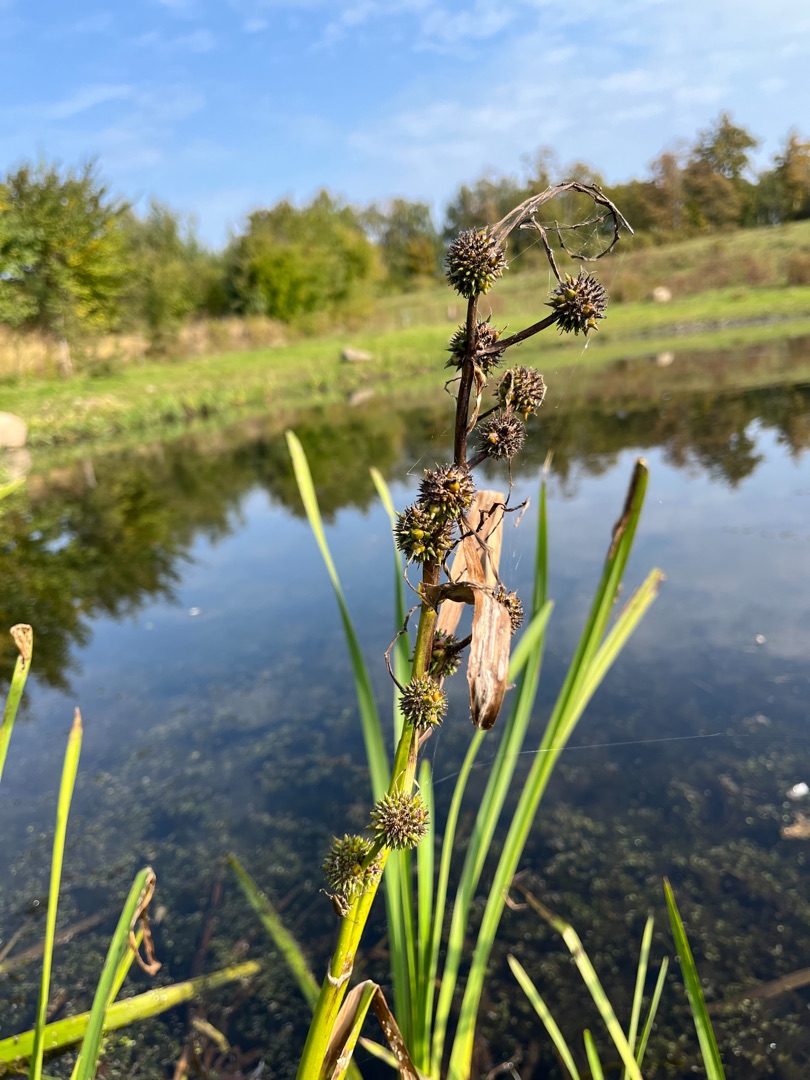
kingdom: Plantae
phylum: Tracheophyta
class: Liliopsida
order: Poales
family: Typhaceae
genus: Sparganium
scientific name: Sparganium erectum
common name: Sodfarvet pindsvineknop
